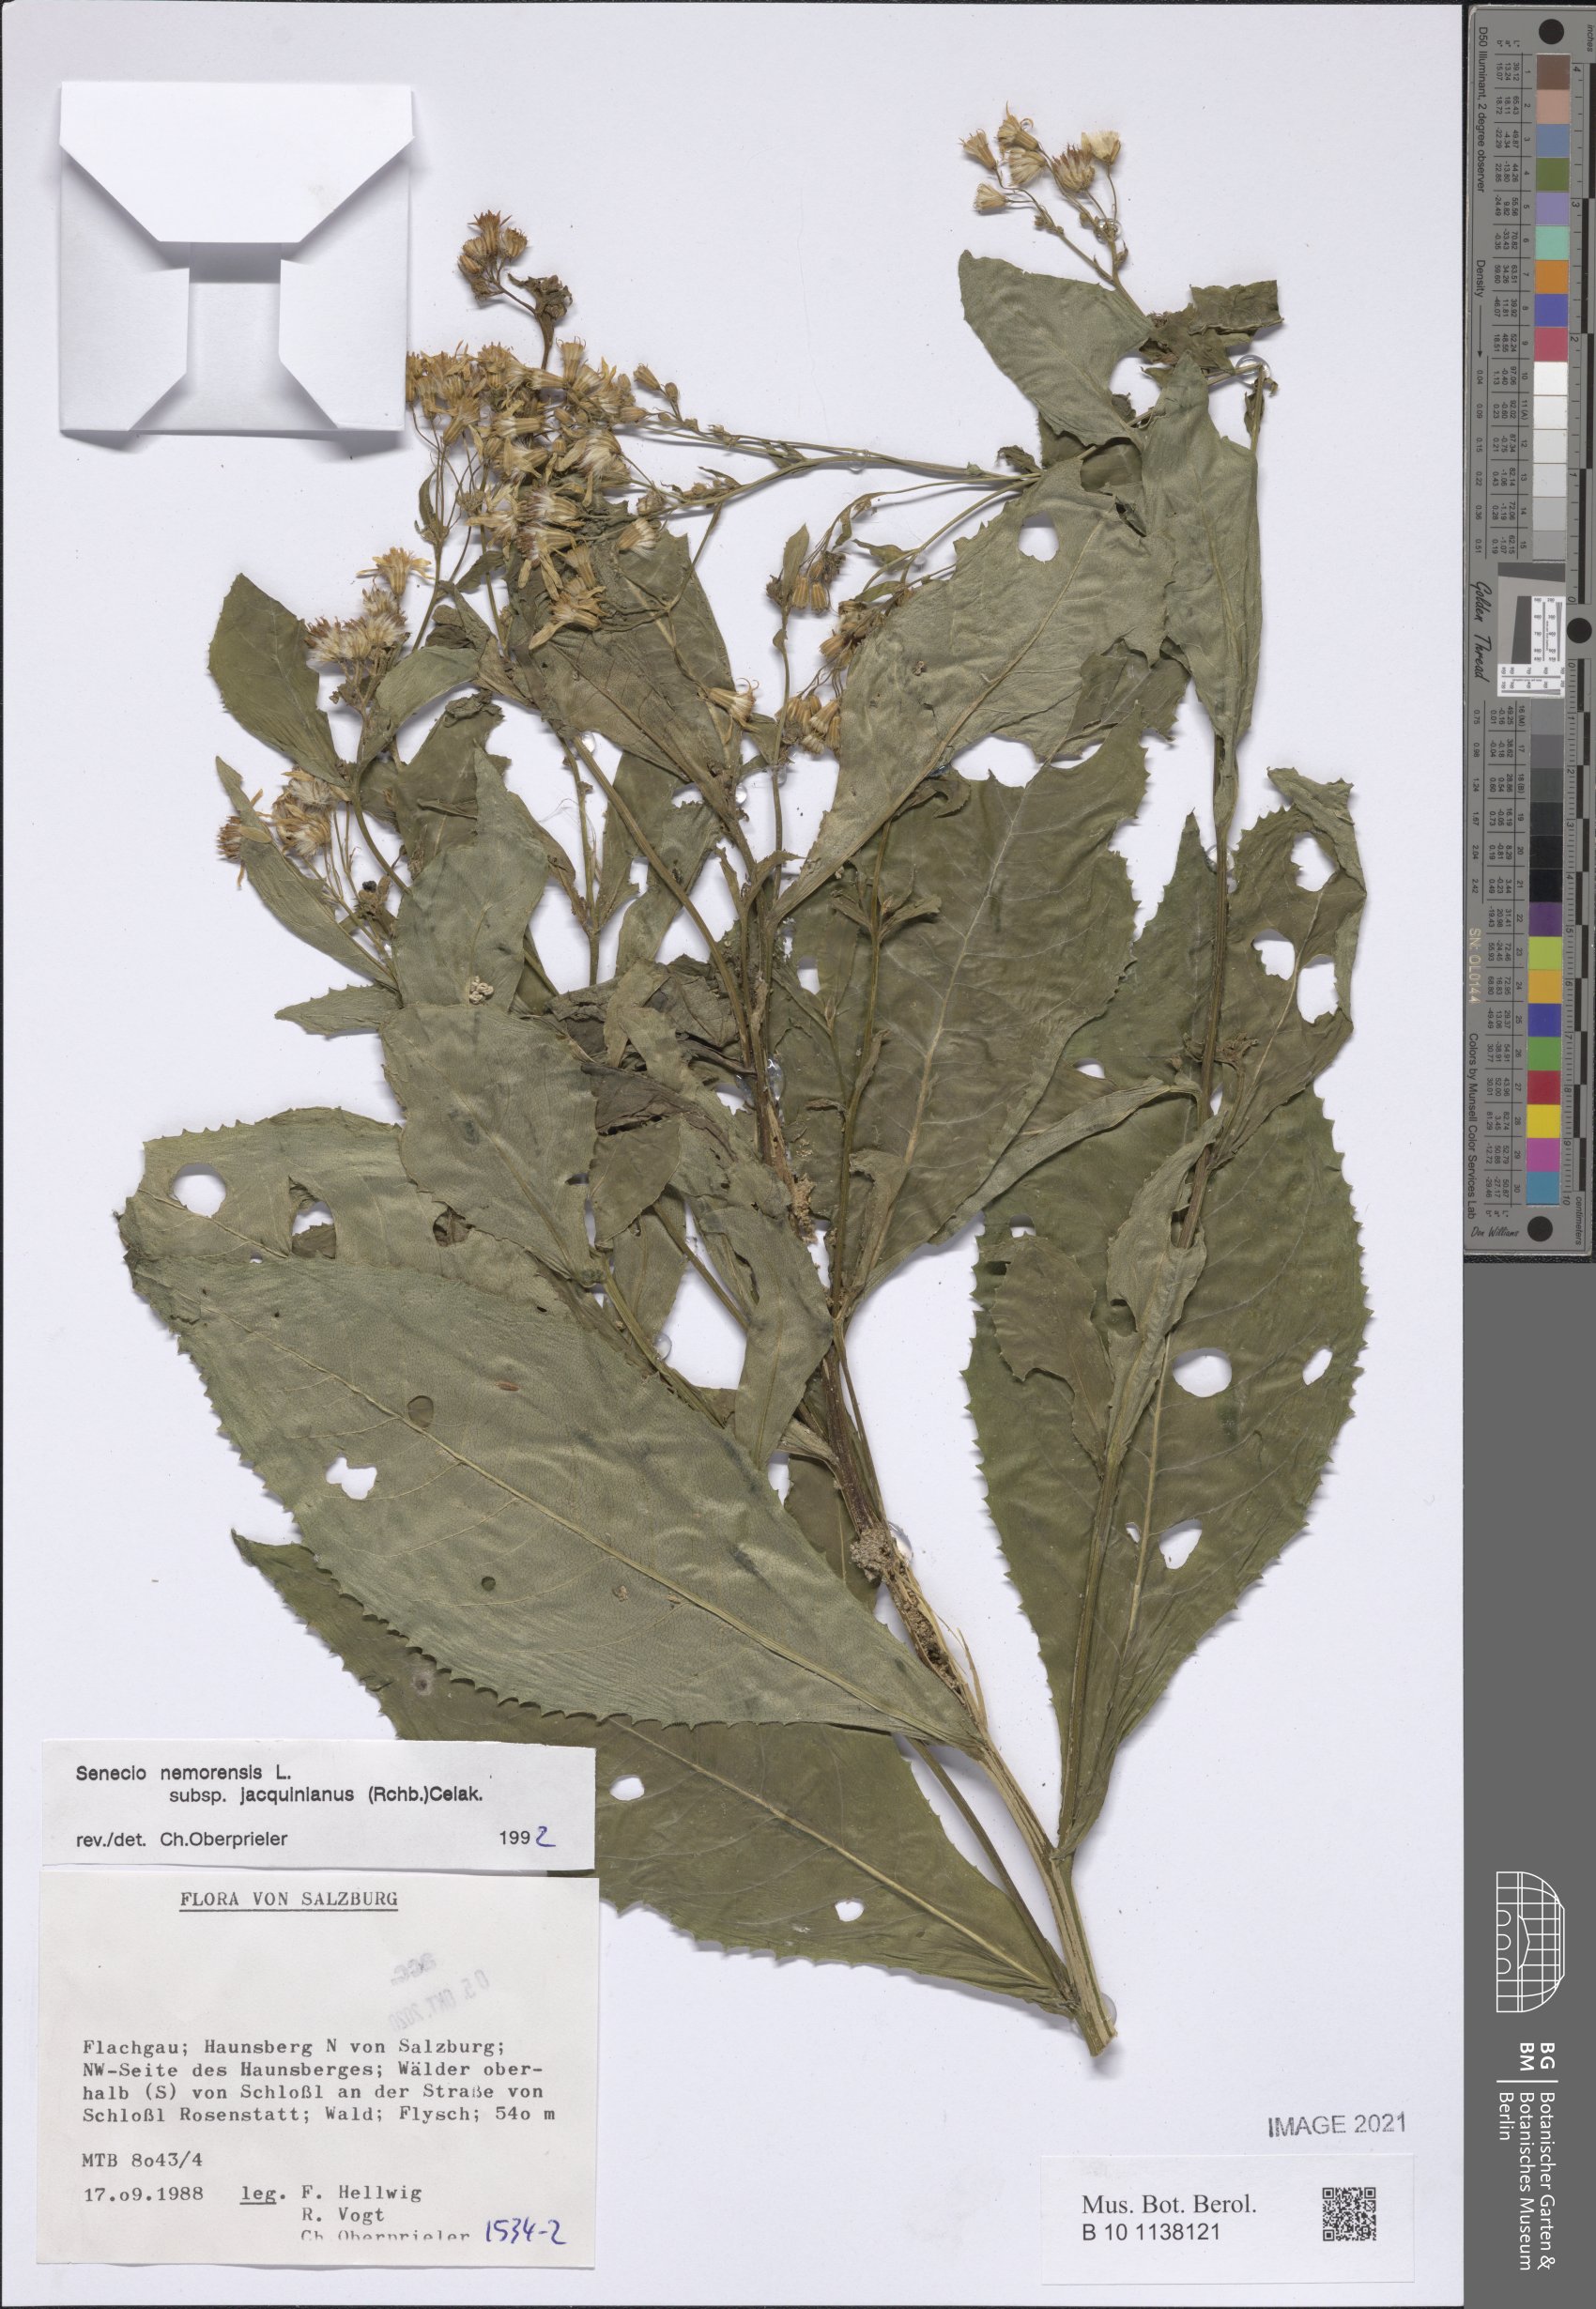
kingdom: Plantae
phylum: Tracheophyta
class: Magnoliopsida
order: Asterales
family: Asteraceae
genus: Senecio
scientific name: Senecio germanicus
